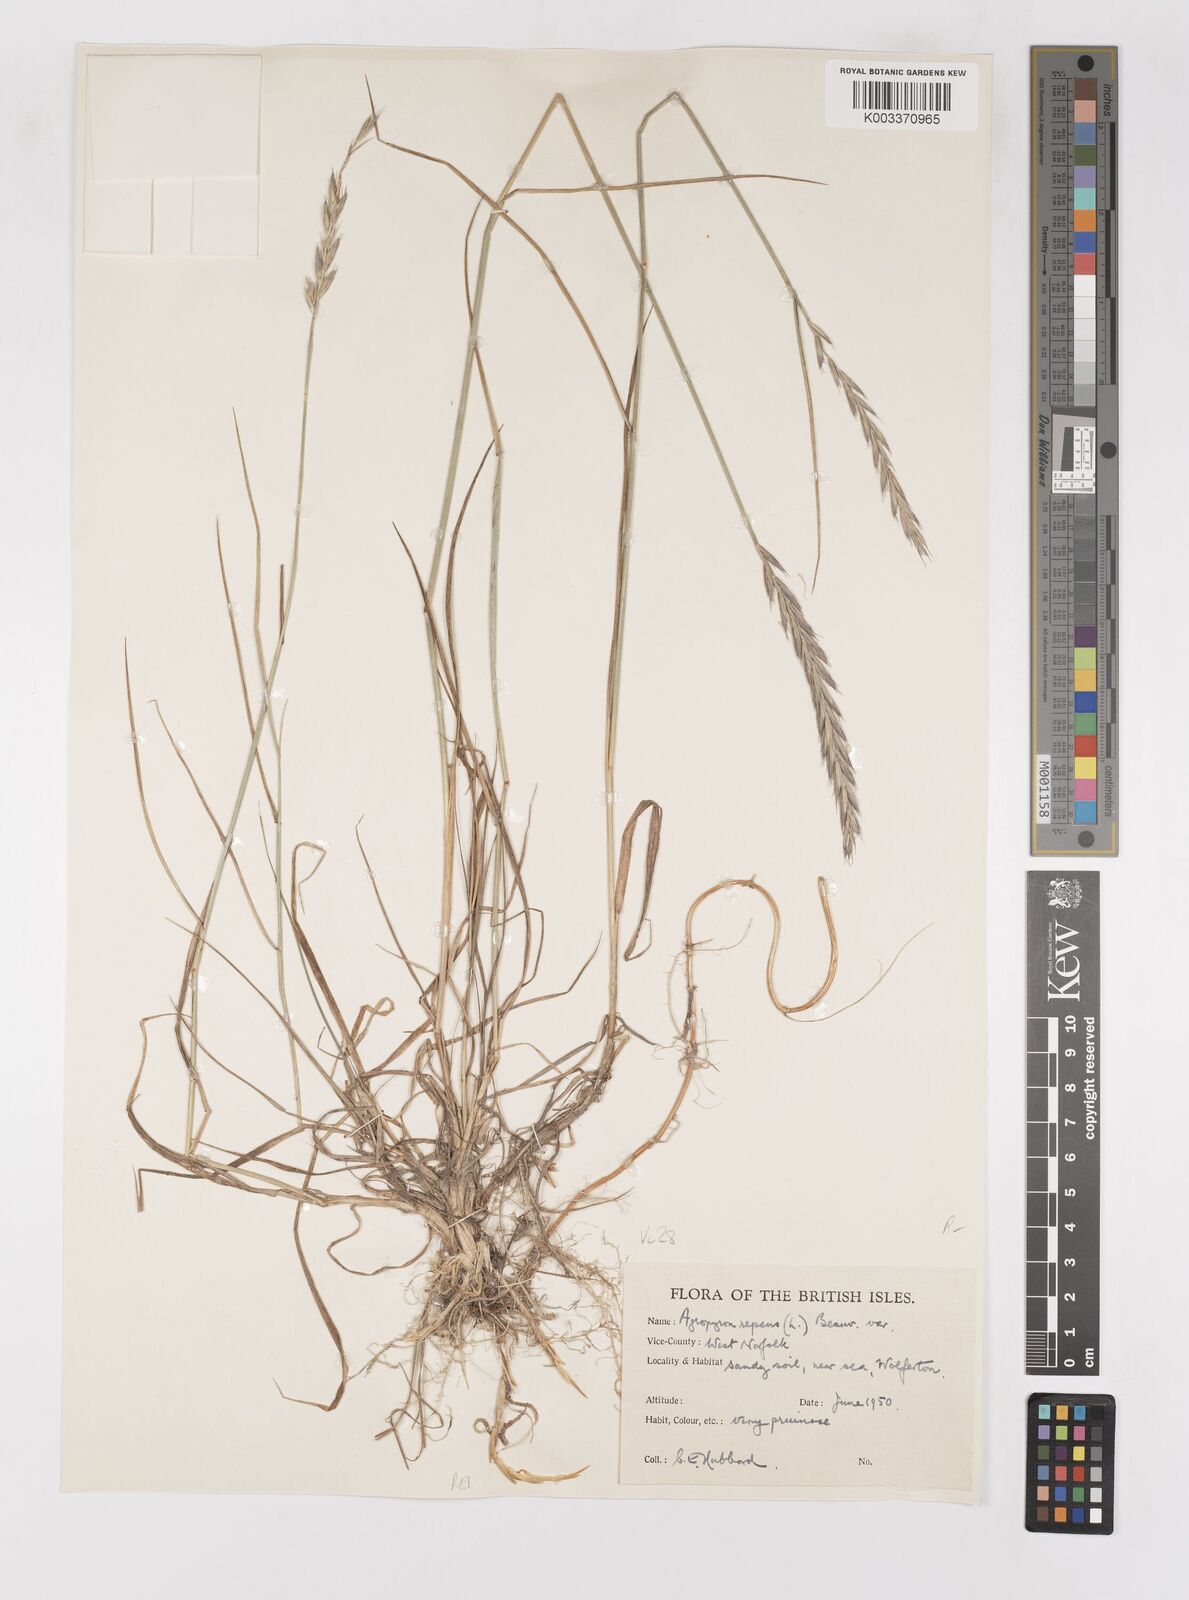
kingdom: Plantae
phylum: Tracheophyta
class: Liliopsida
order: Poales
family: Poaceae
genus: Elymus
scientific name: Elymus repens
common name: Quackgrass
